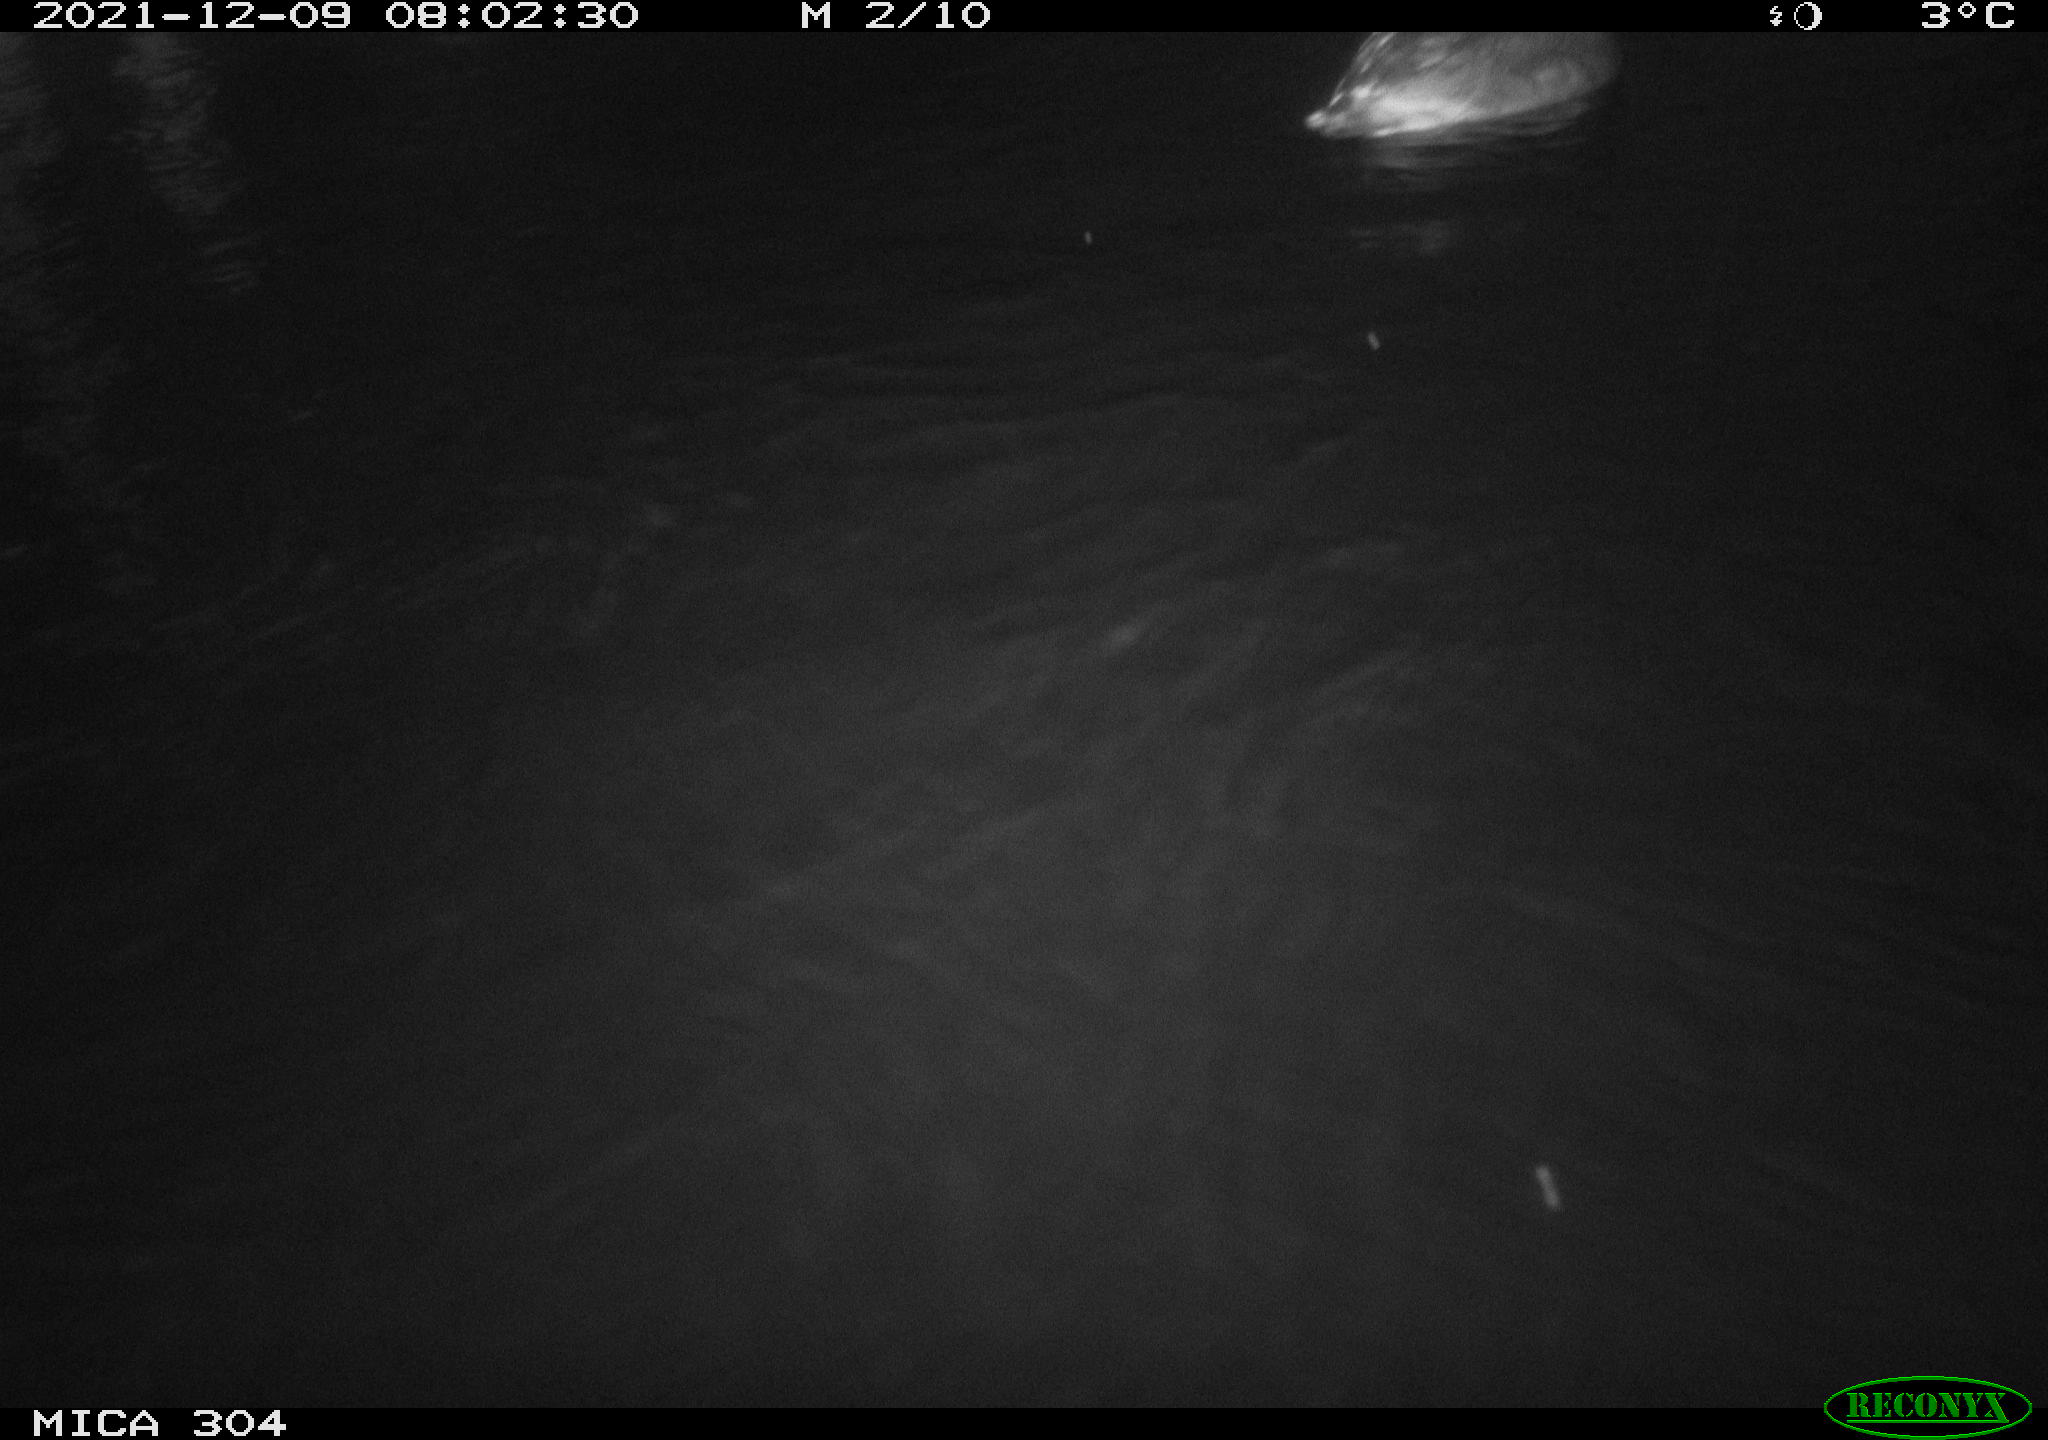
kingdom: Animalia
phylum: Chordata
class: Aves
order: Anseriformes
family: Anatidae
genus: Anas
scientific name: Anas
